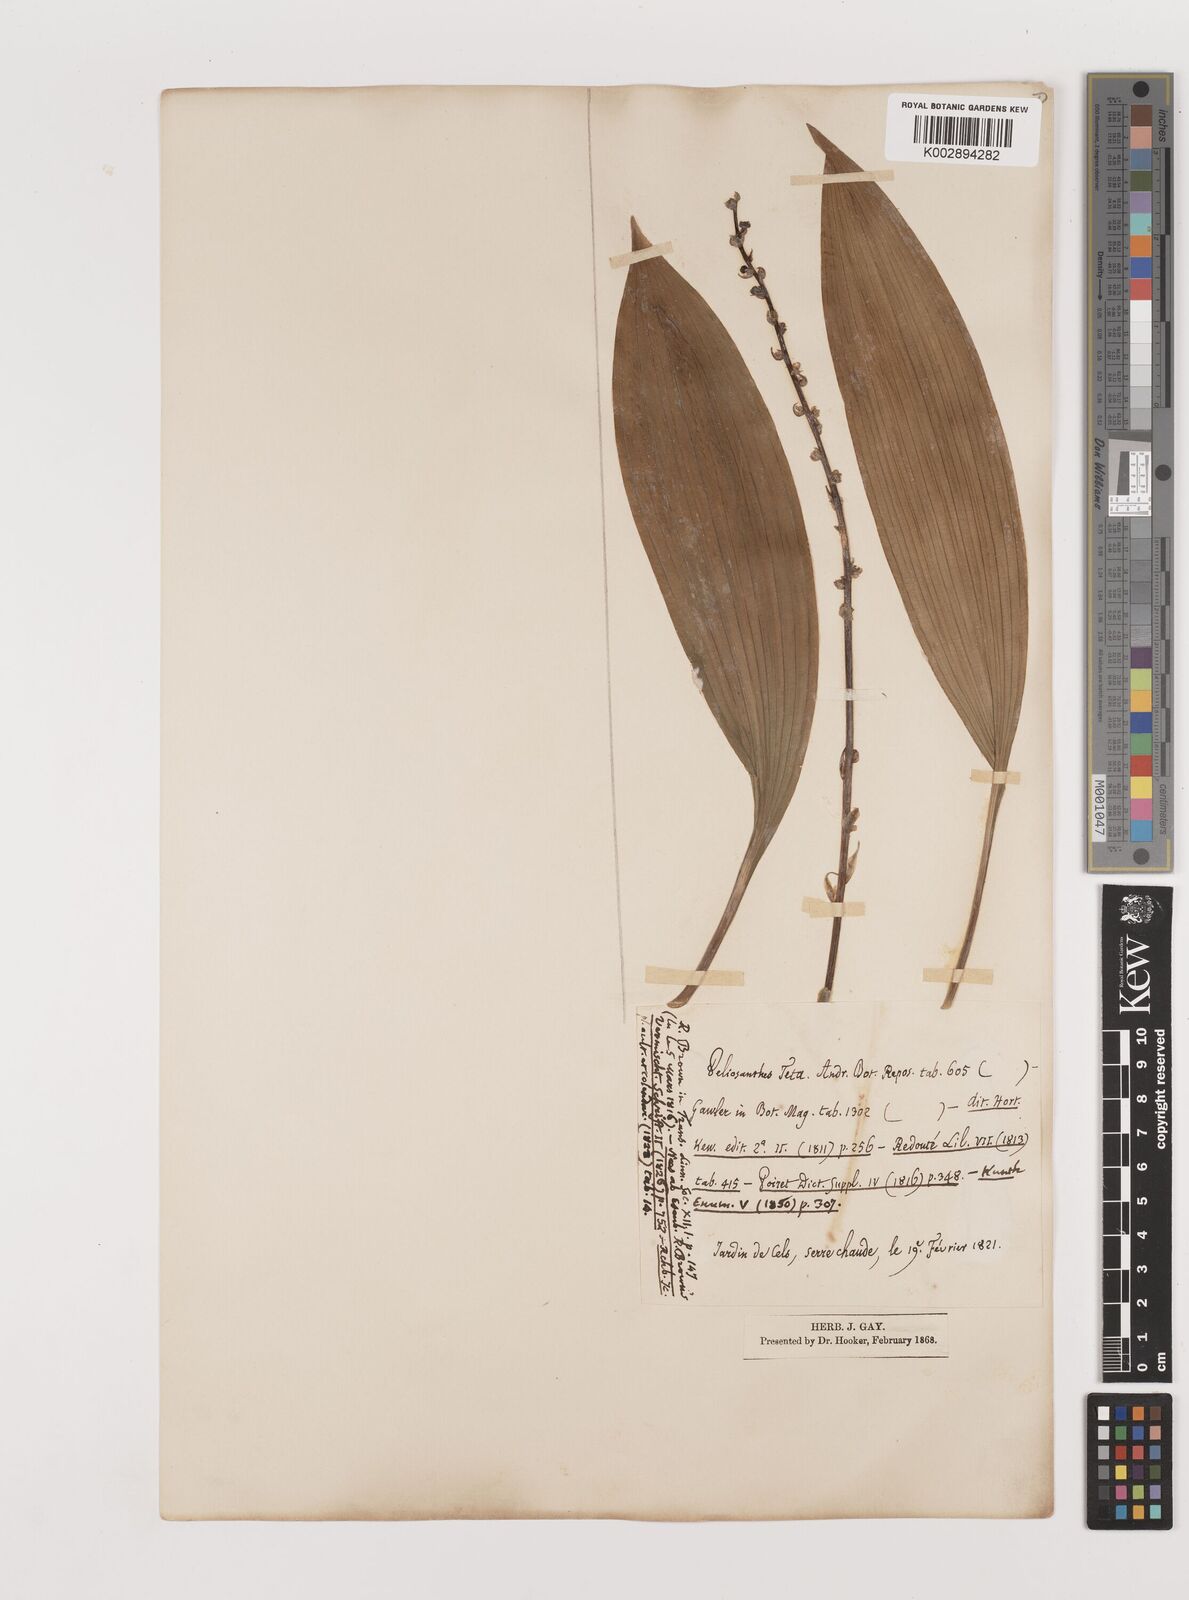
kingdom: Plantae
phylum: Tracheophyta
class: Liliopsida
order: Asparagales
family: Asparagaceae
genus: Peliosanthes
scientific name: Peliosanthes teta
